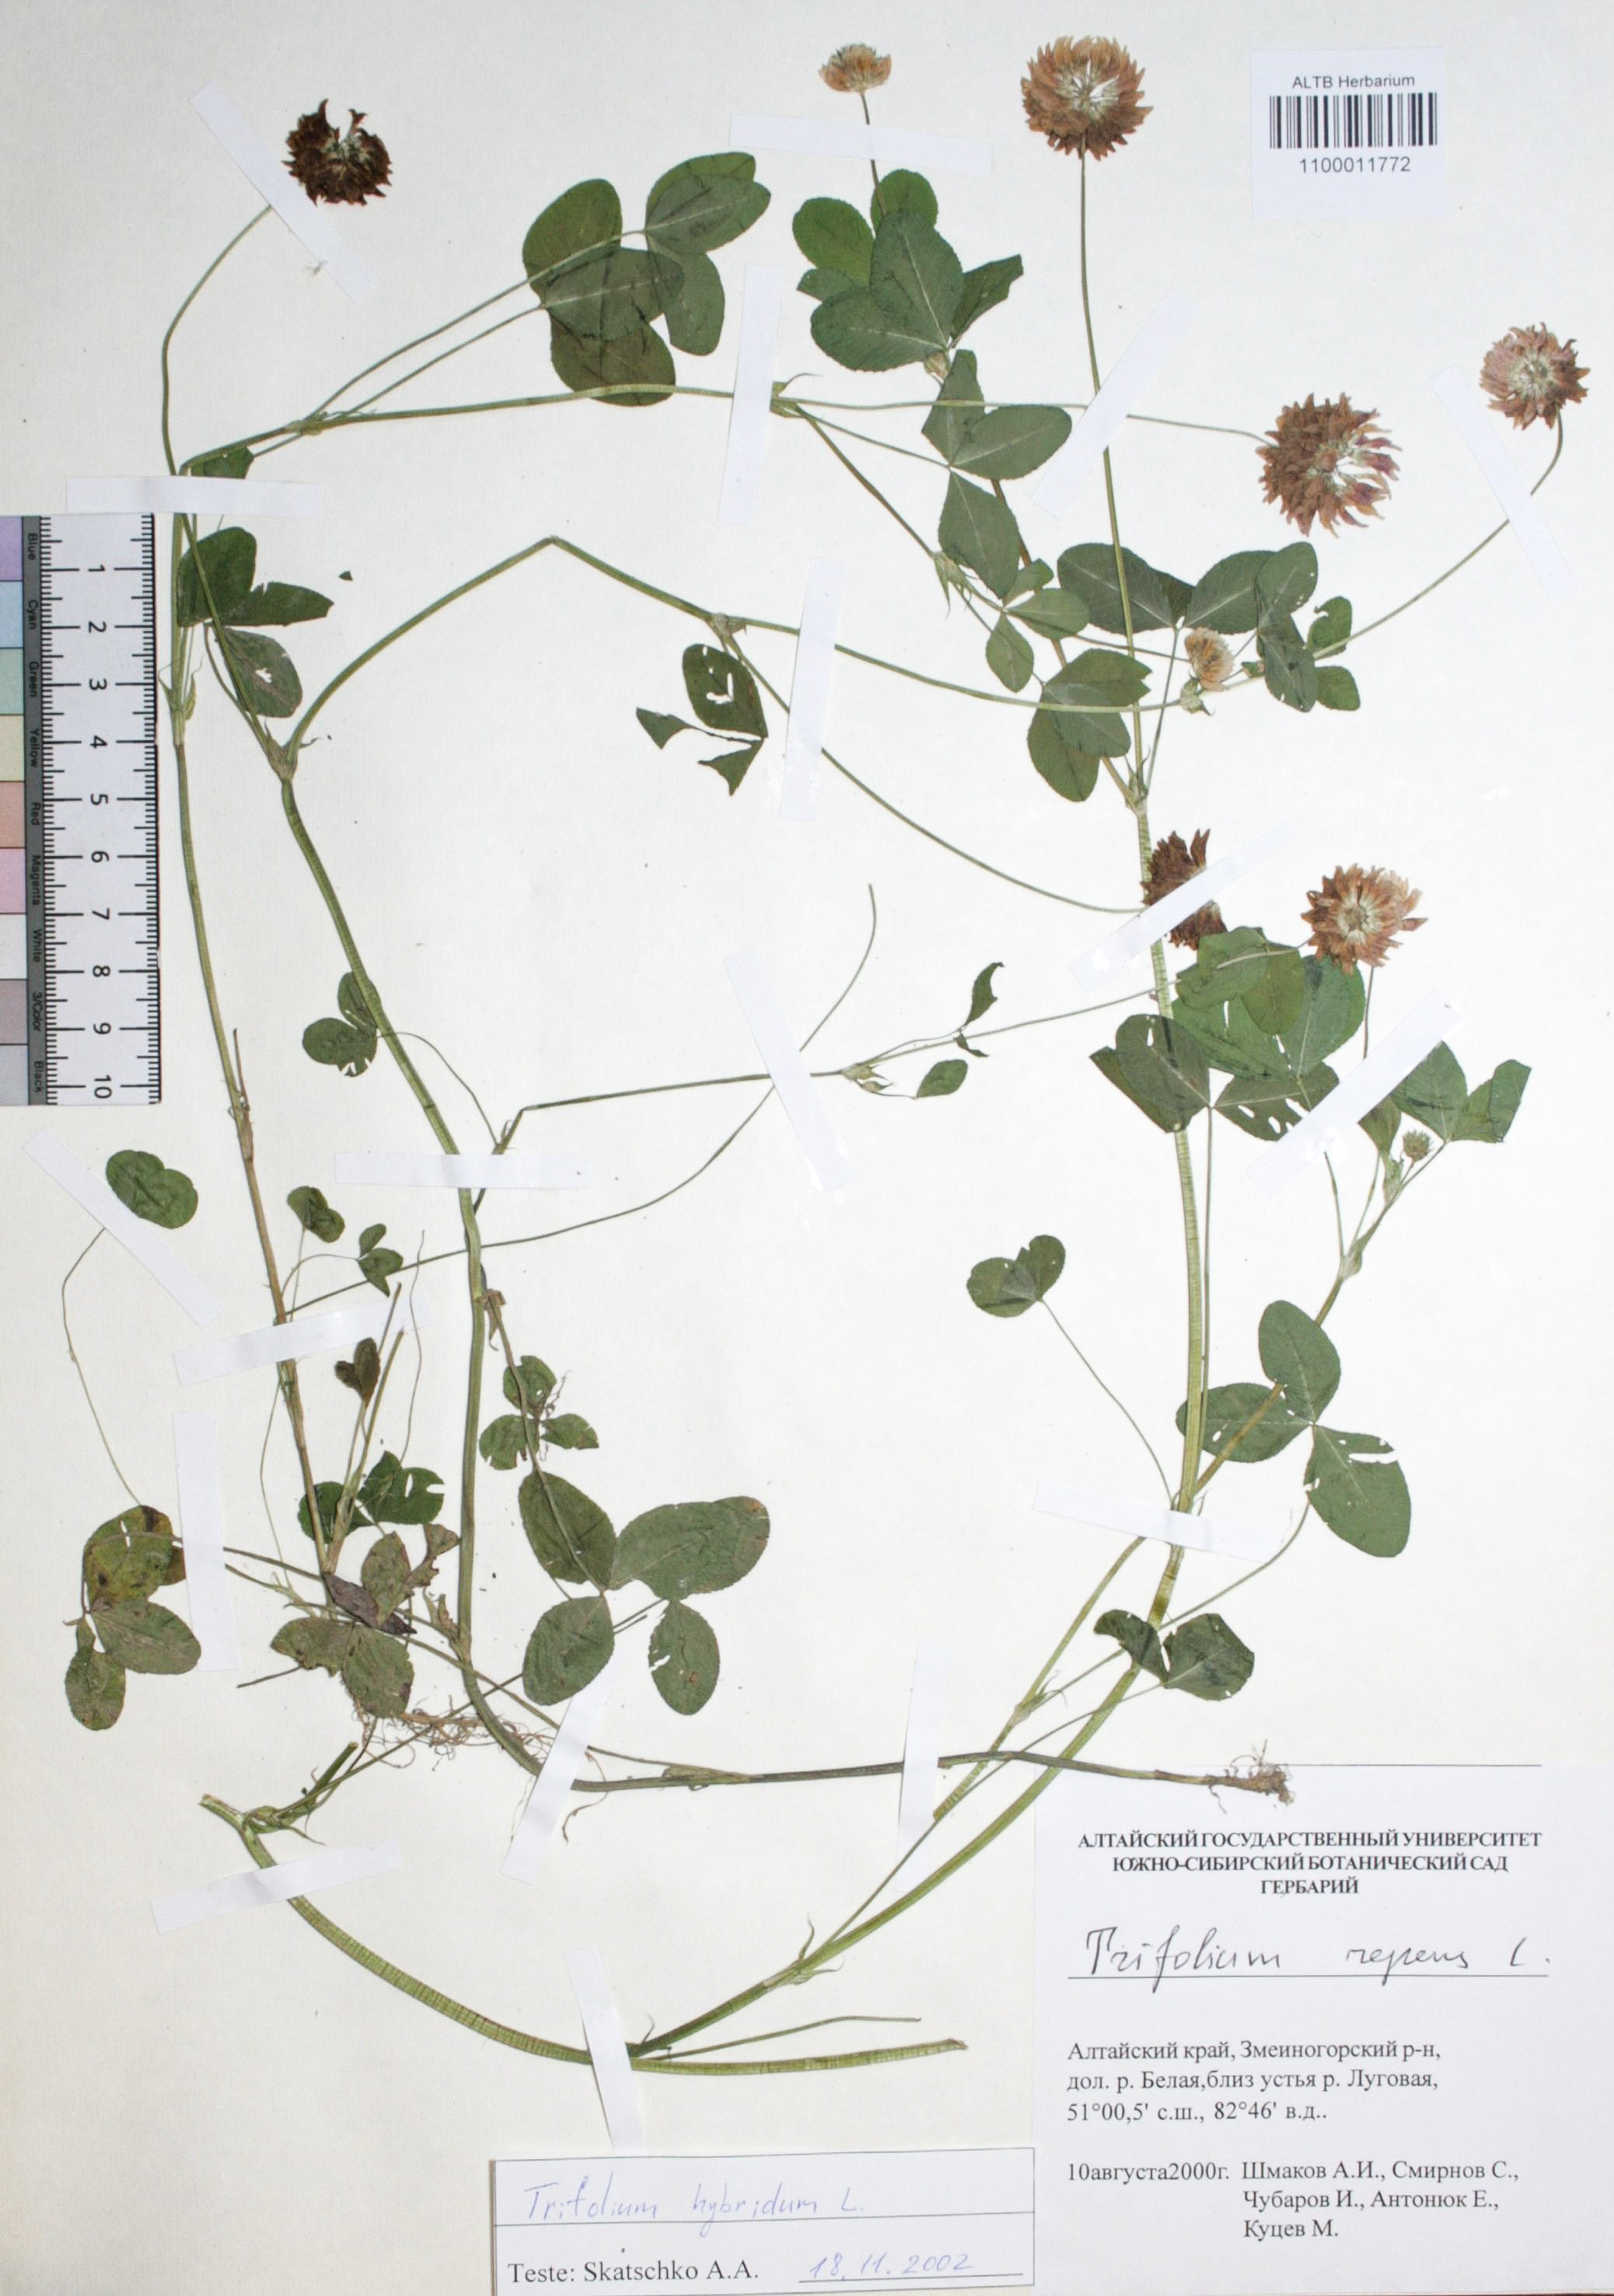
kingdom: Plantae
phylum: Tracheophyta
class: Magnoliopsida
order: Fabales
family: Fabaceae
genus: Trifolium
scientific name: Trifolium repens
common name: White clover
